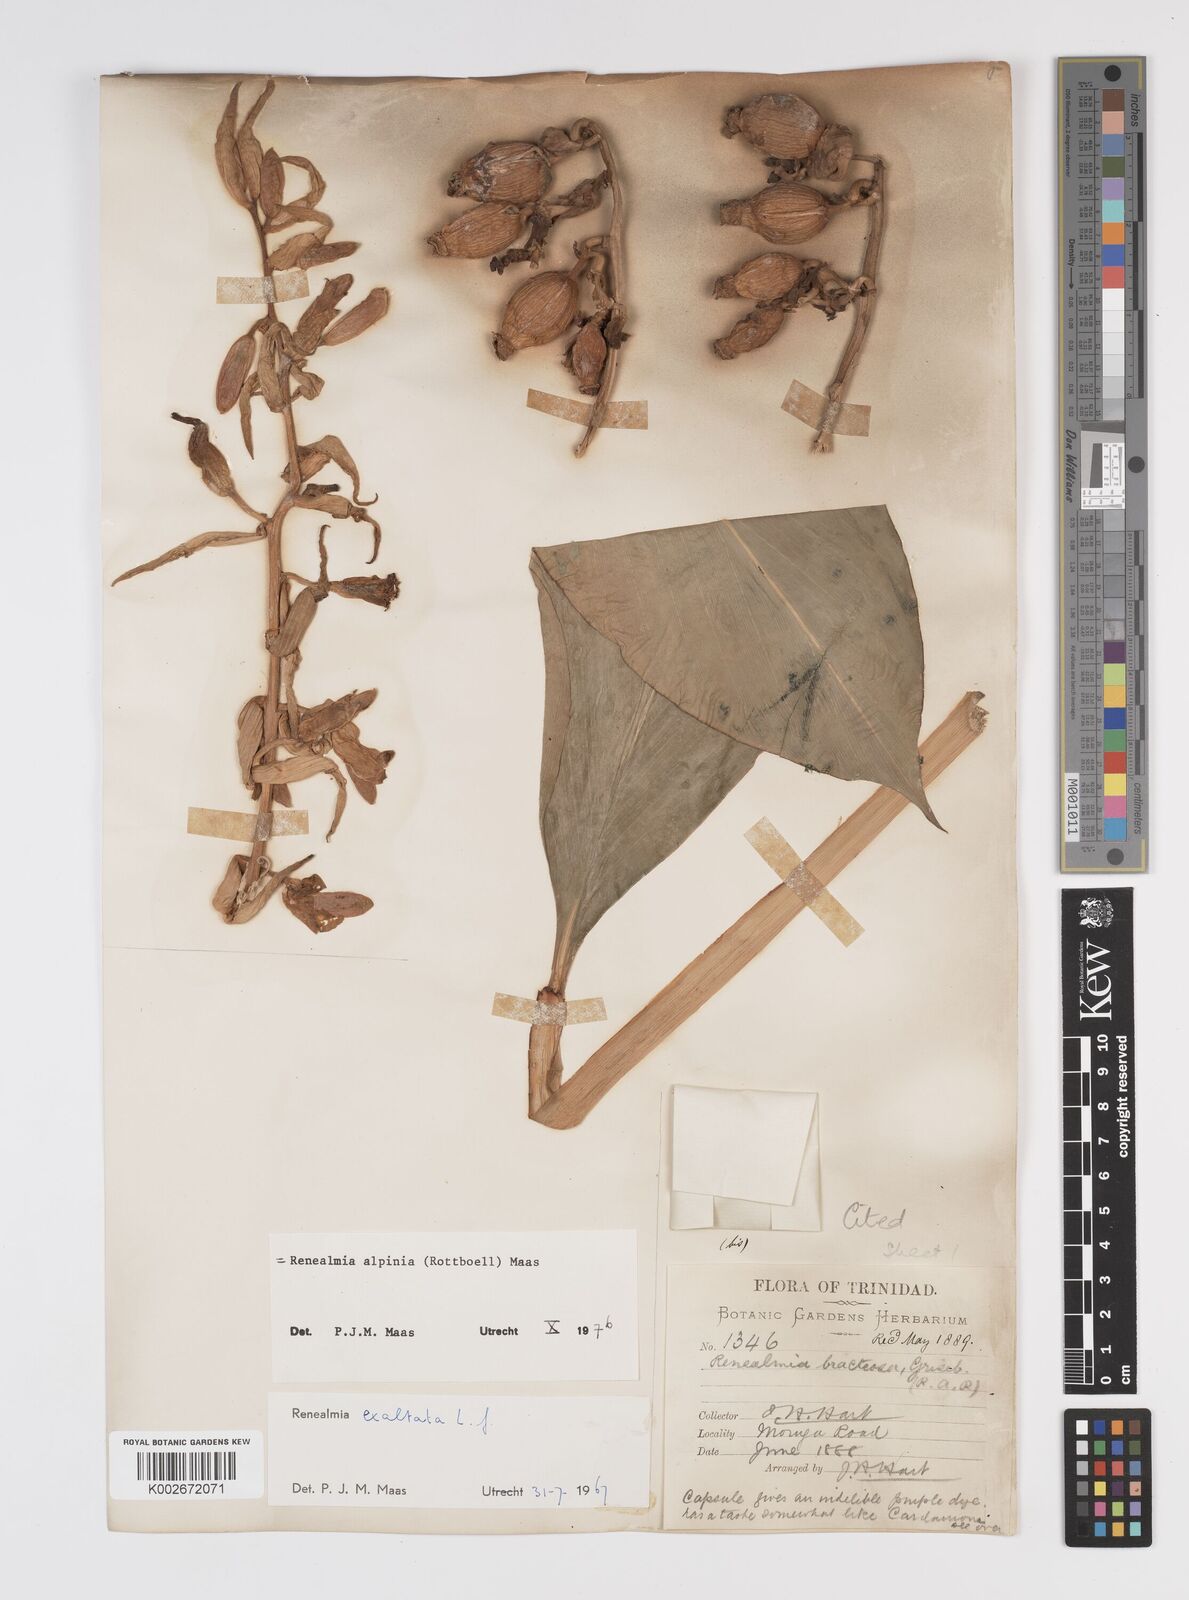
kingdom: Plantae
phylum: Tracheophyta
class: Liliopsida
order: Zingiberales
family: Zingiberaceae
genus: Renealmia
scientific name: Renealmia alpinia
